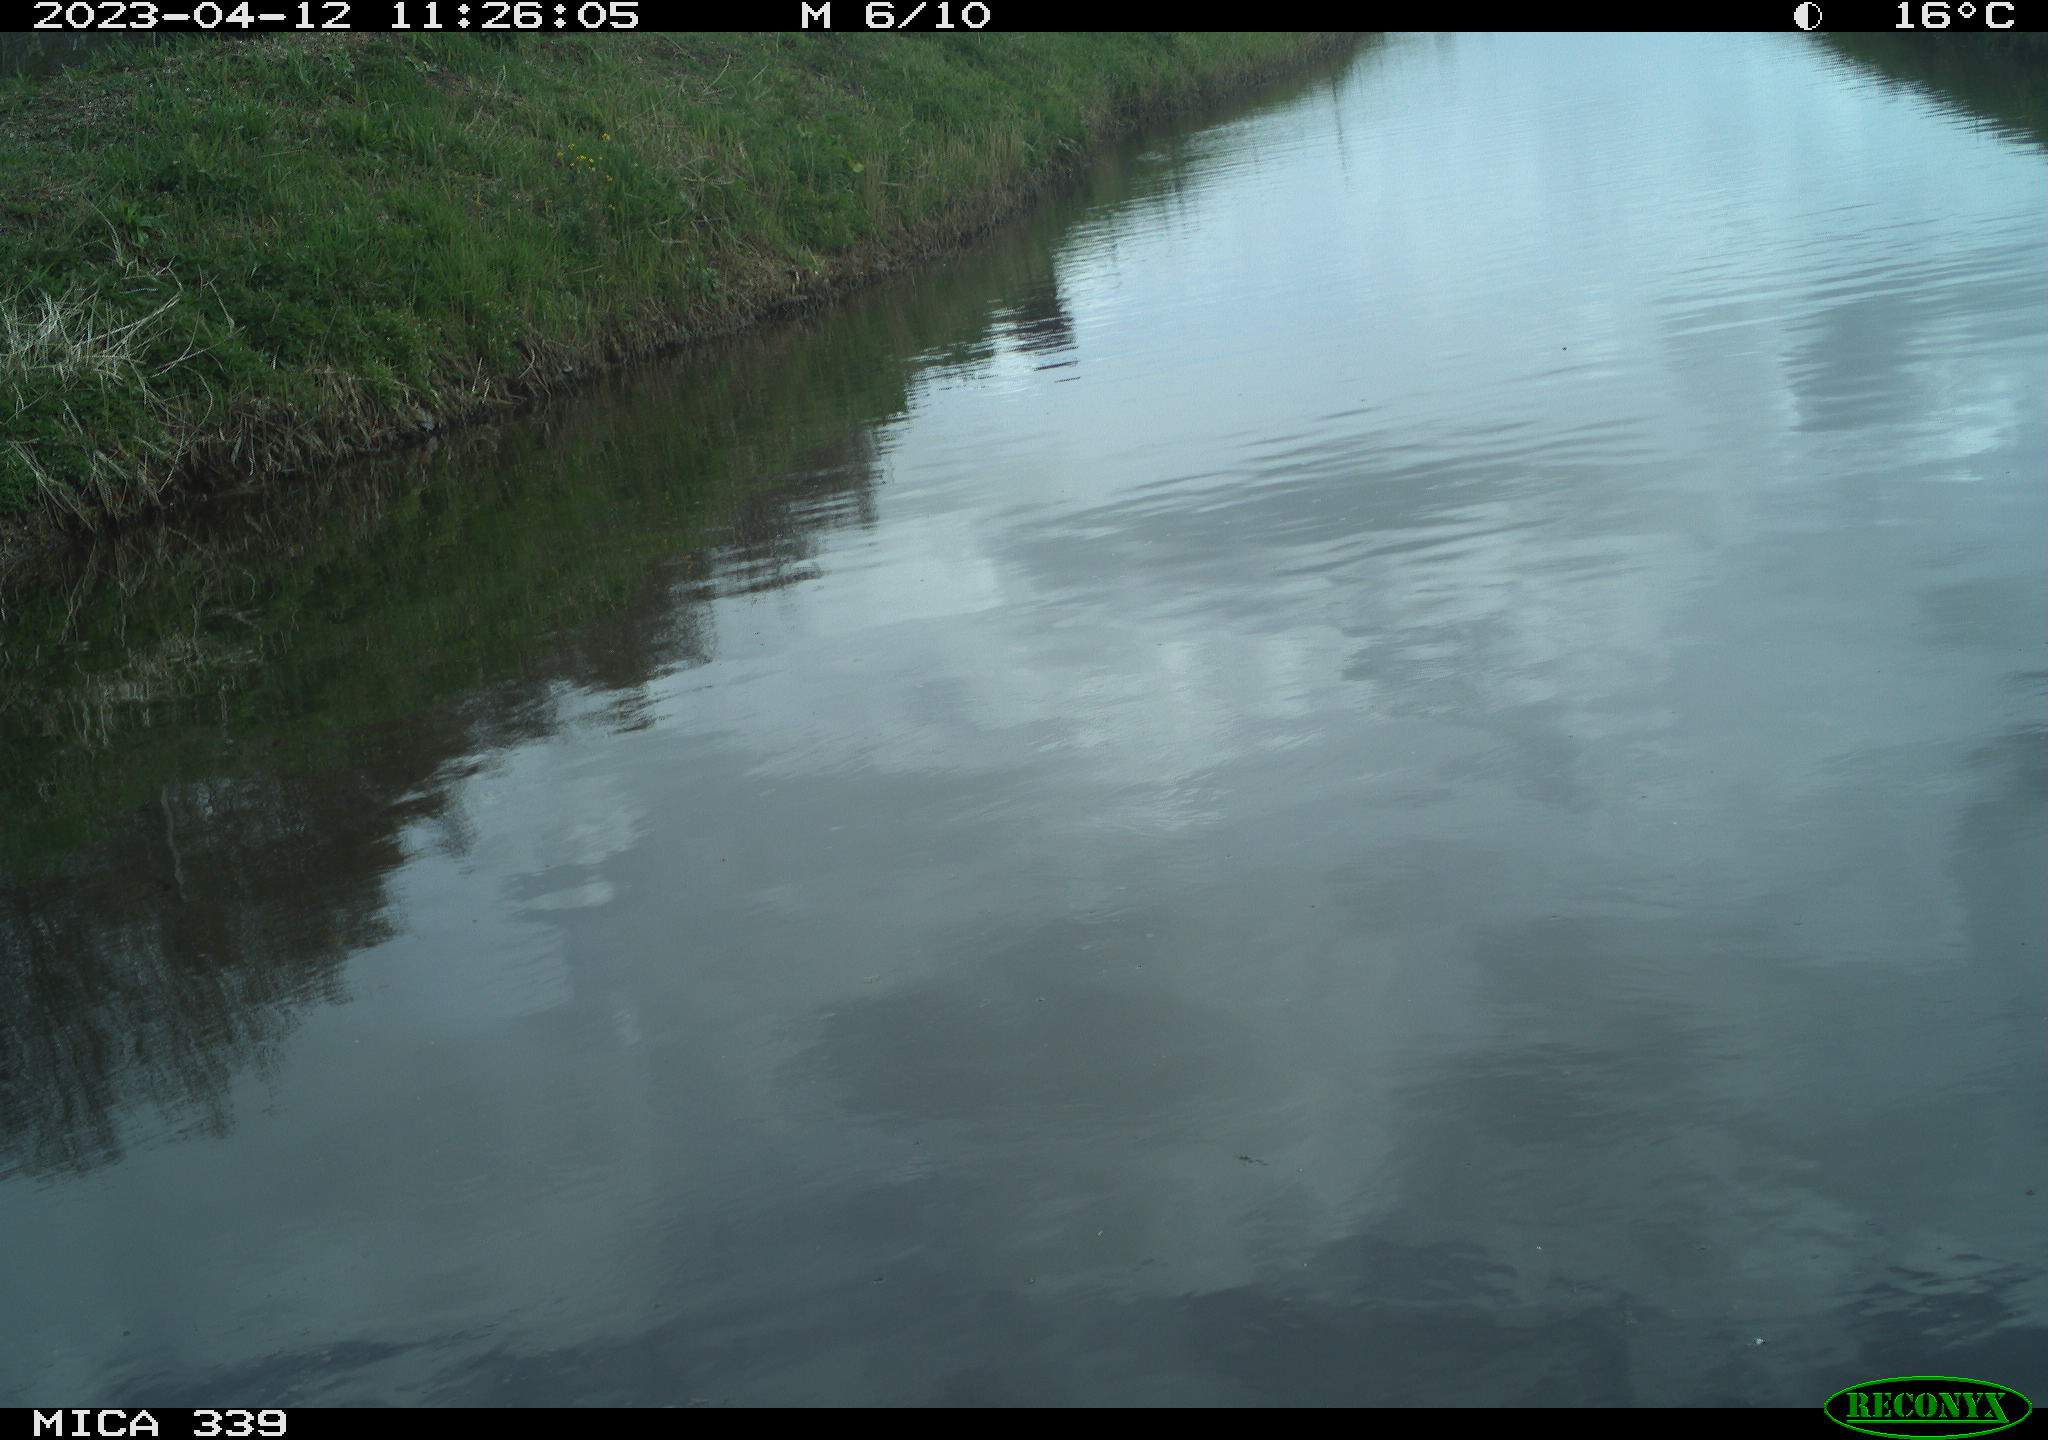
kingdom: Animalia
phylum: Chordata
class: Aves
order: Pelecaniformes
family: Ardeidae
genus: Ardea
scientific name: Ardea cinerea
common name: Grey heron
